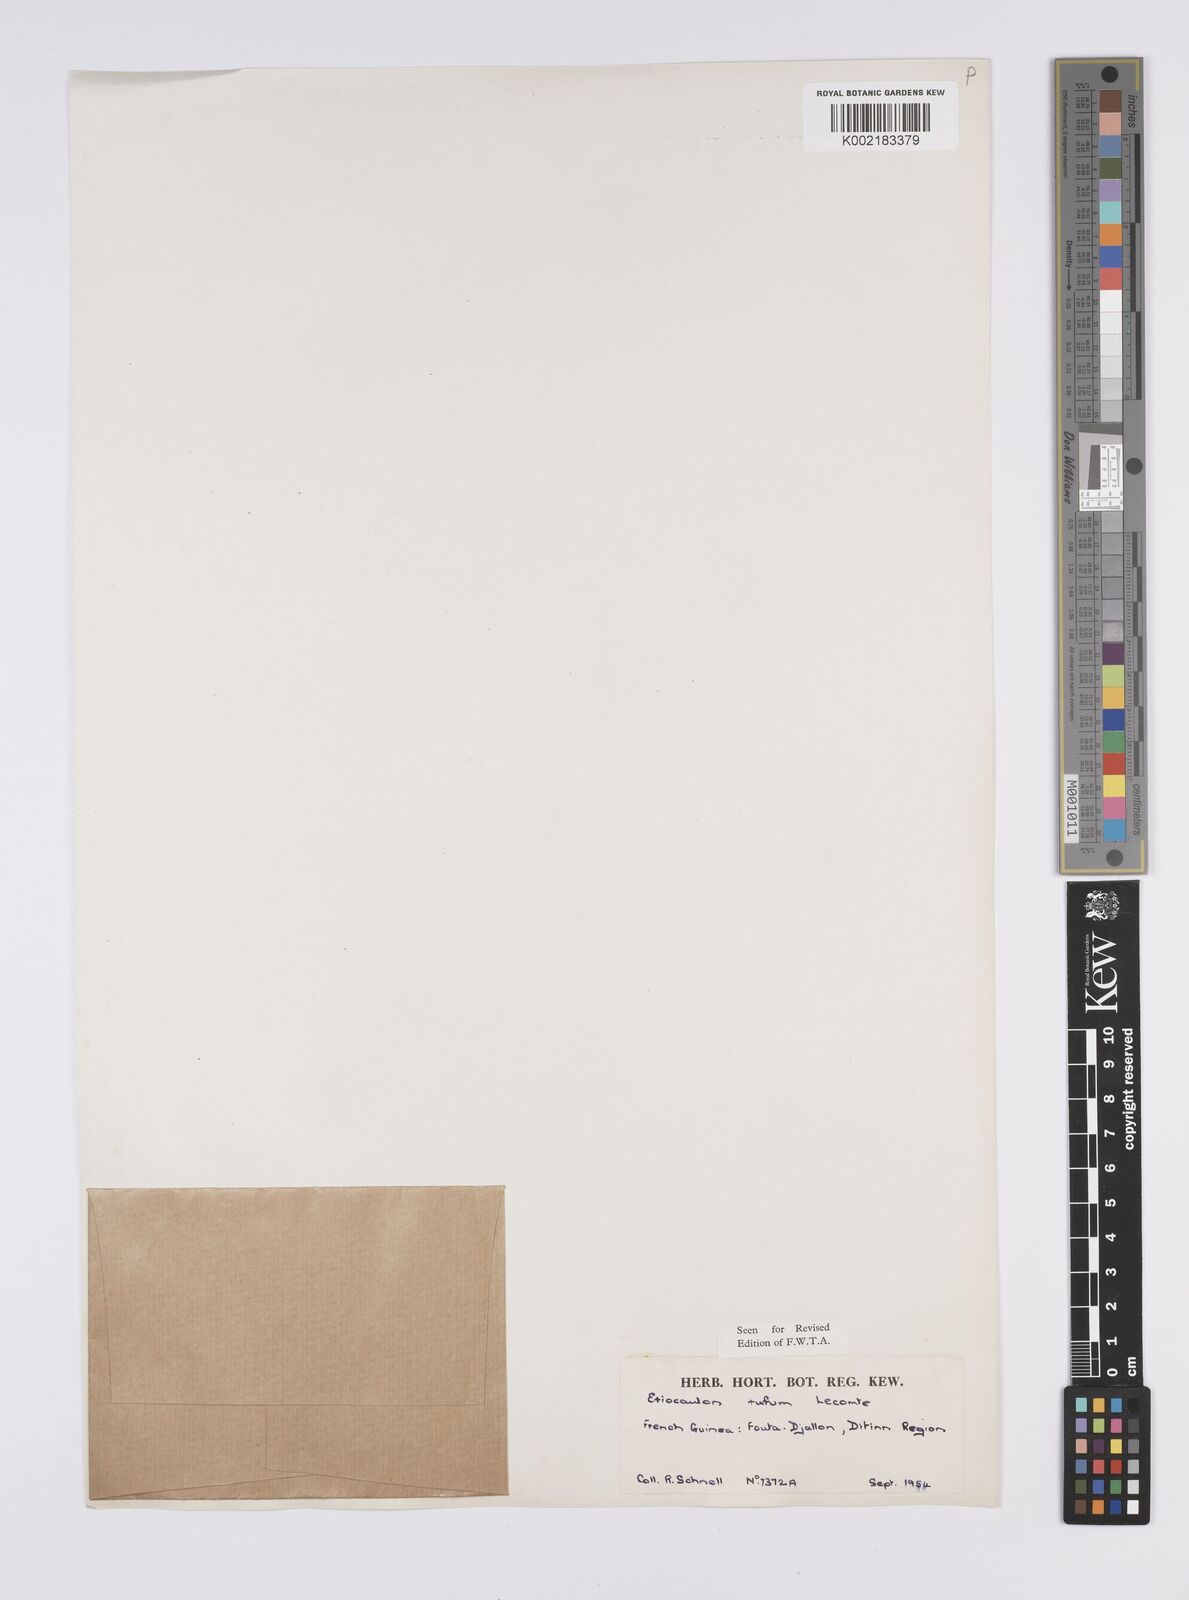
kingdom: Plantae
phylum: Tracheophyta
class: Liliopsida
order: Poales
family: Eriocaulaceae
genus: Eriocaulon
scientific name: Eriocaulon rufum
